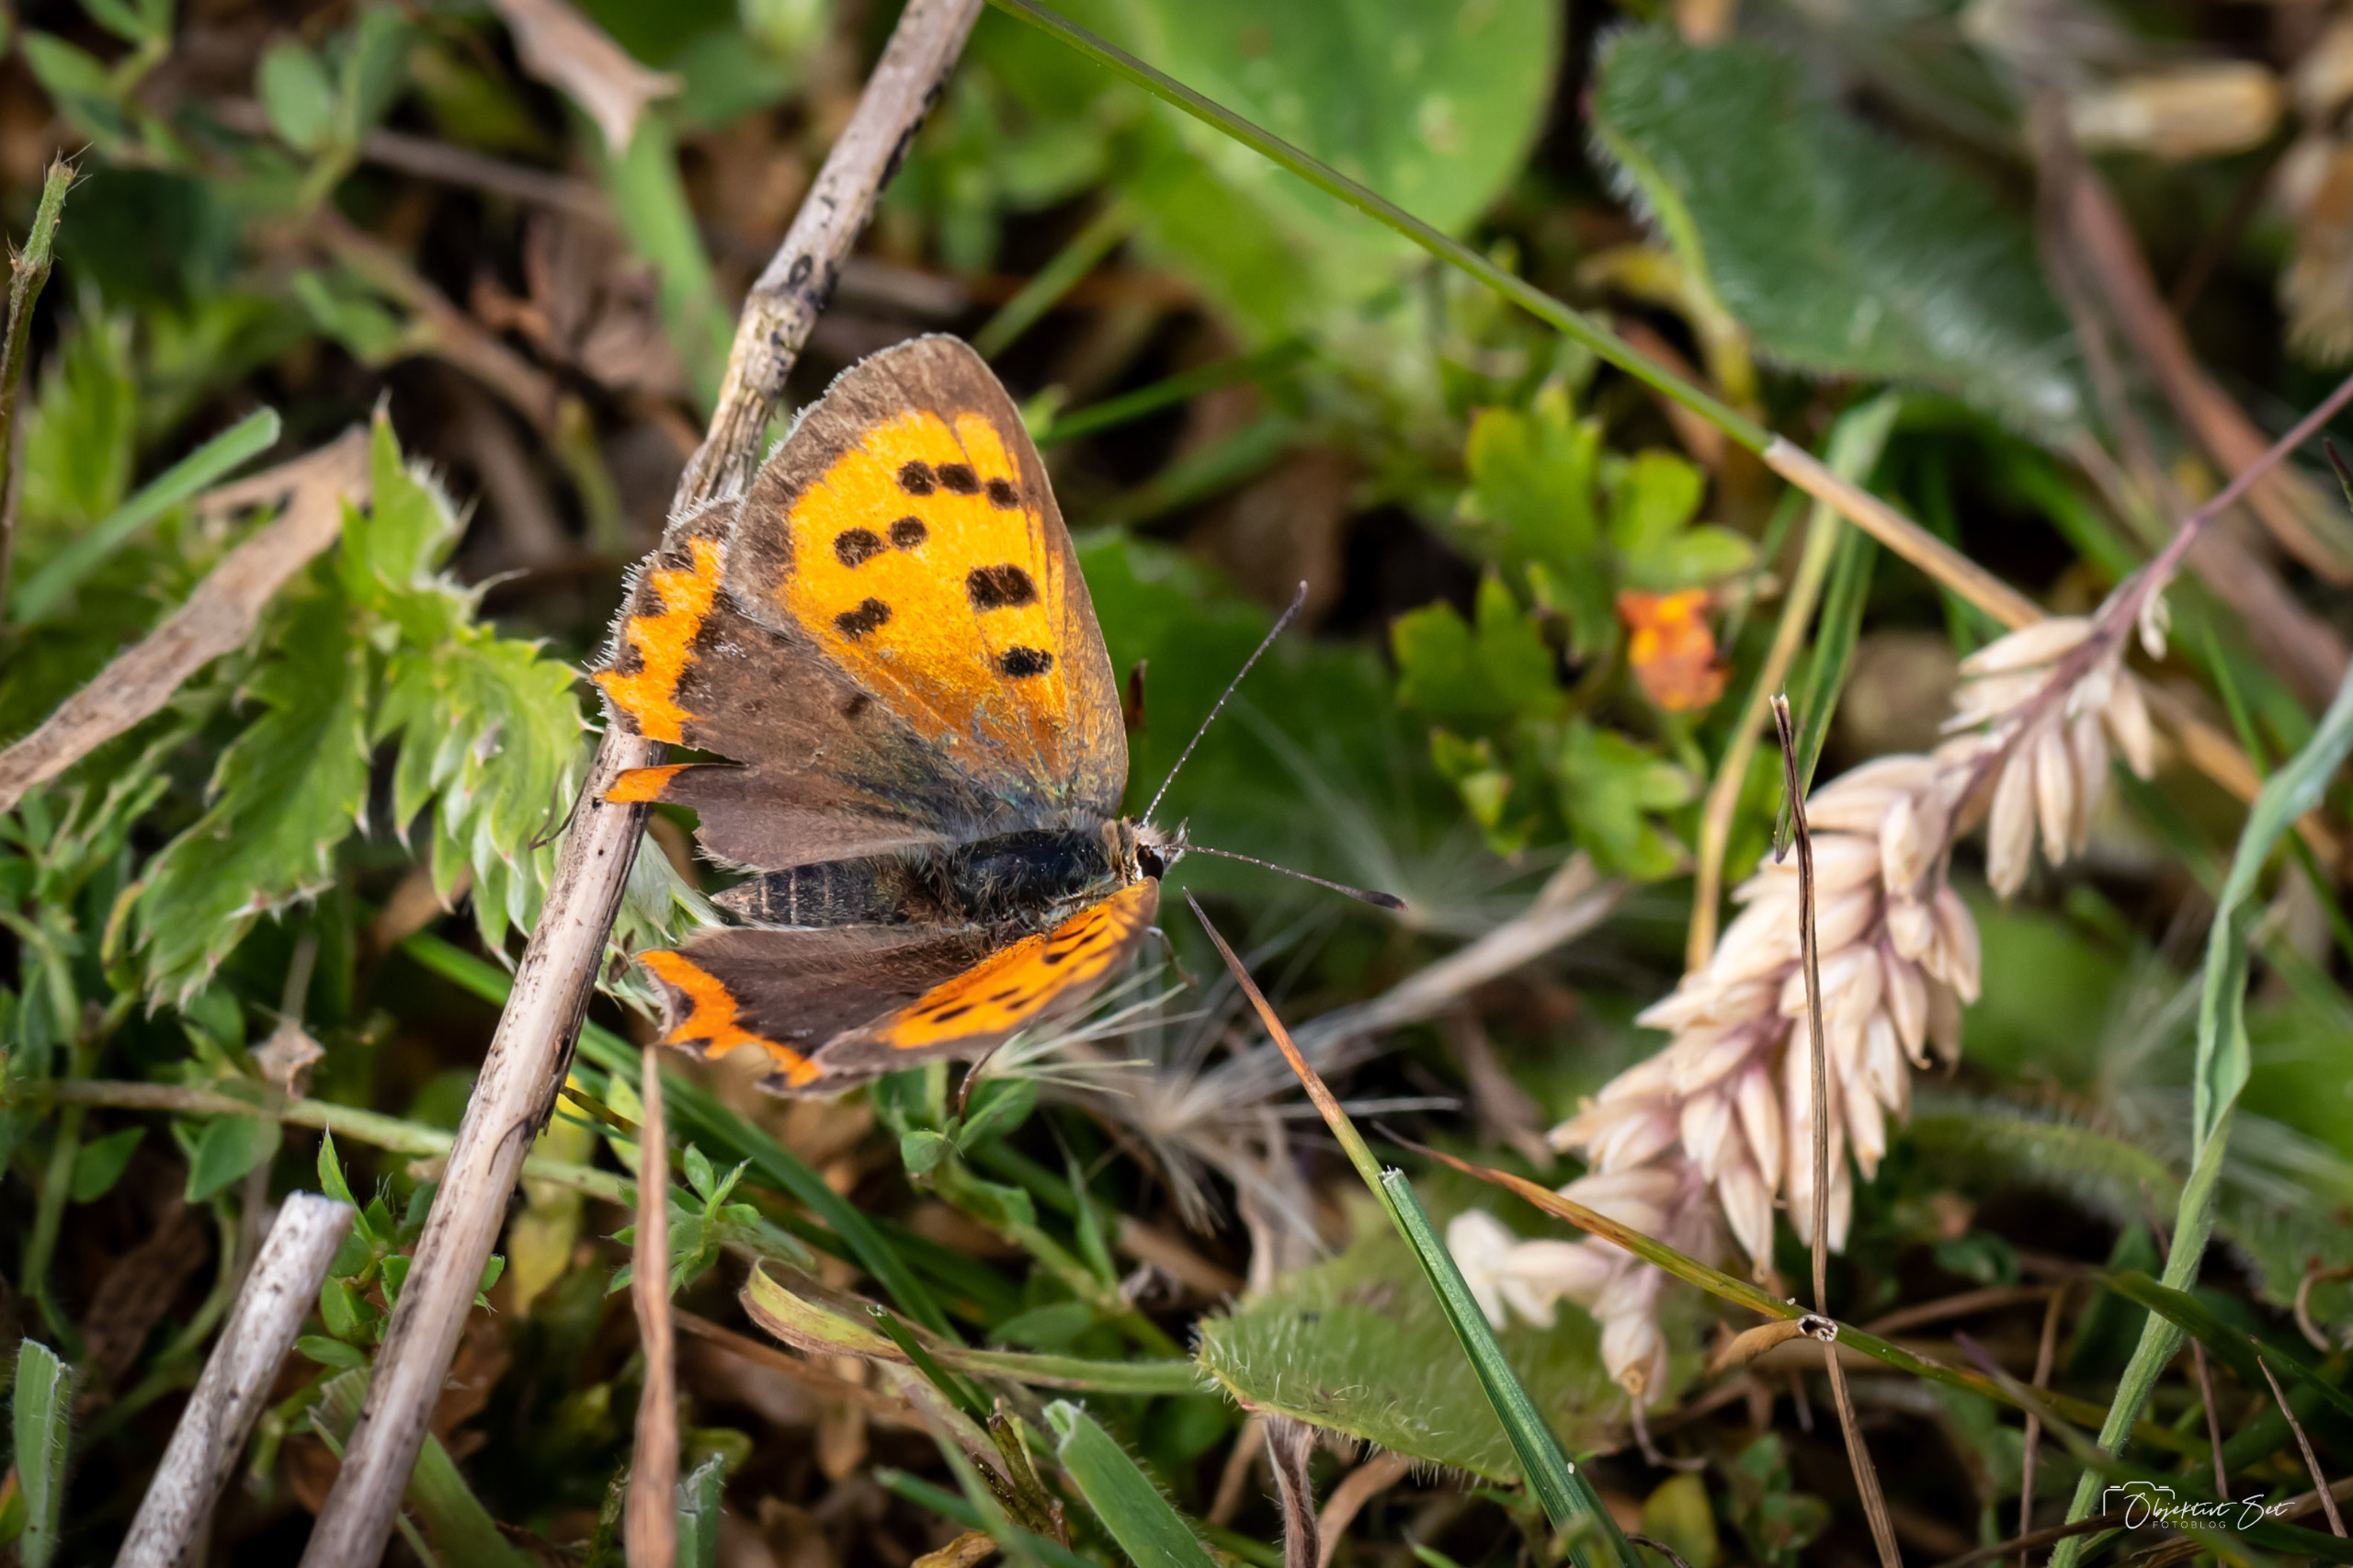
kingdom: Animalia
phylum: Arthropoda
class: Insecta
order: Lepidoptera
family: Lycaenidae
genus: Lycaena
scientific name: Lycaena phlaeas
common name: Lille ildfugl
